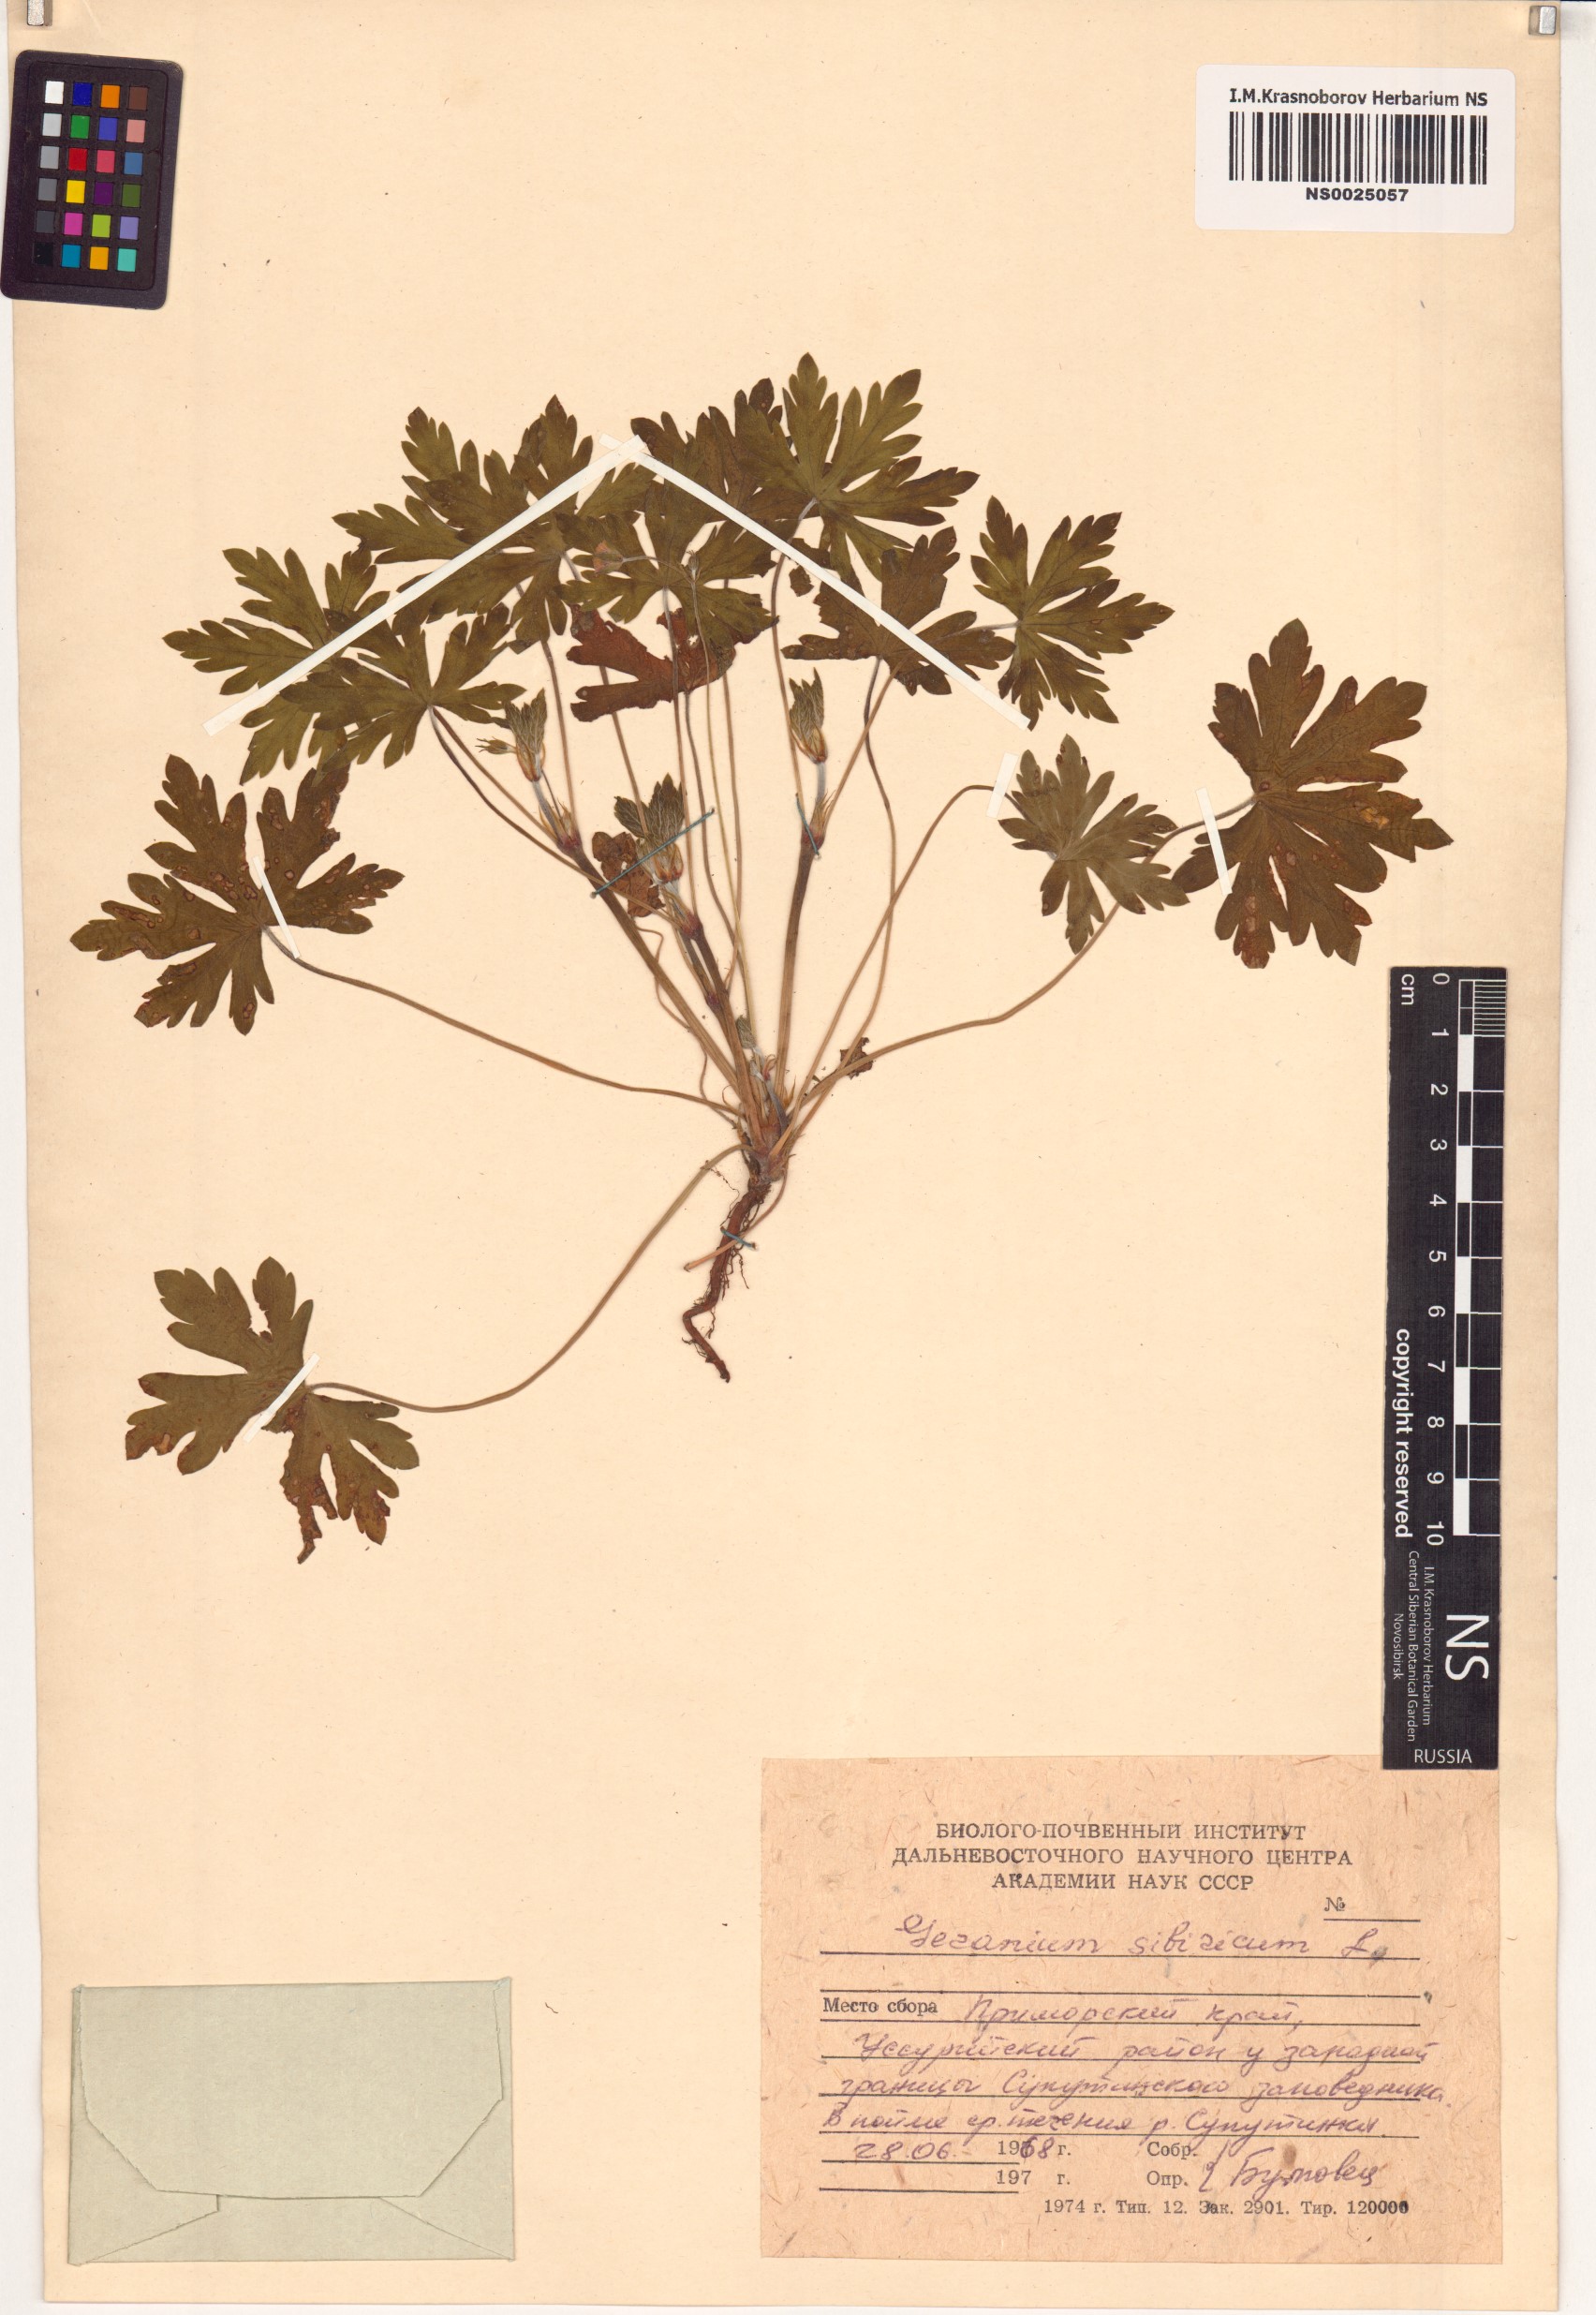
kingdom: Plantae
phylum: Tracheophyta
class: Magnoliopsida
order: Geraniales
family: Geraniaceae
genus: Geranium
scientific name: Geranium sibiricum
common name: Siberian crane's-bill
